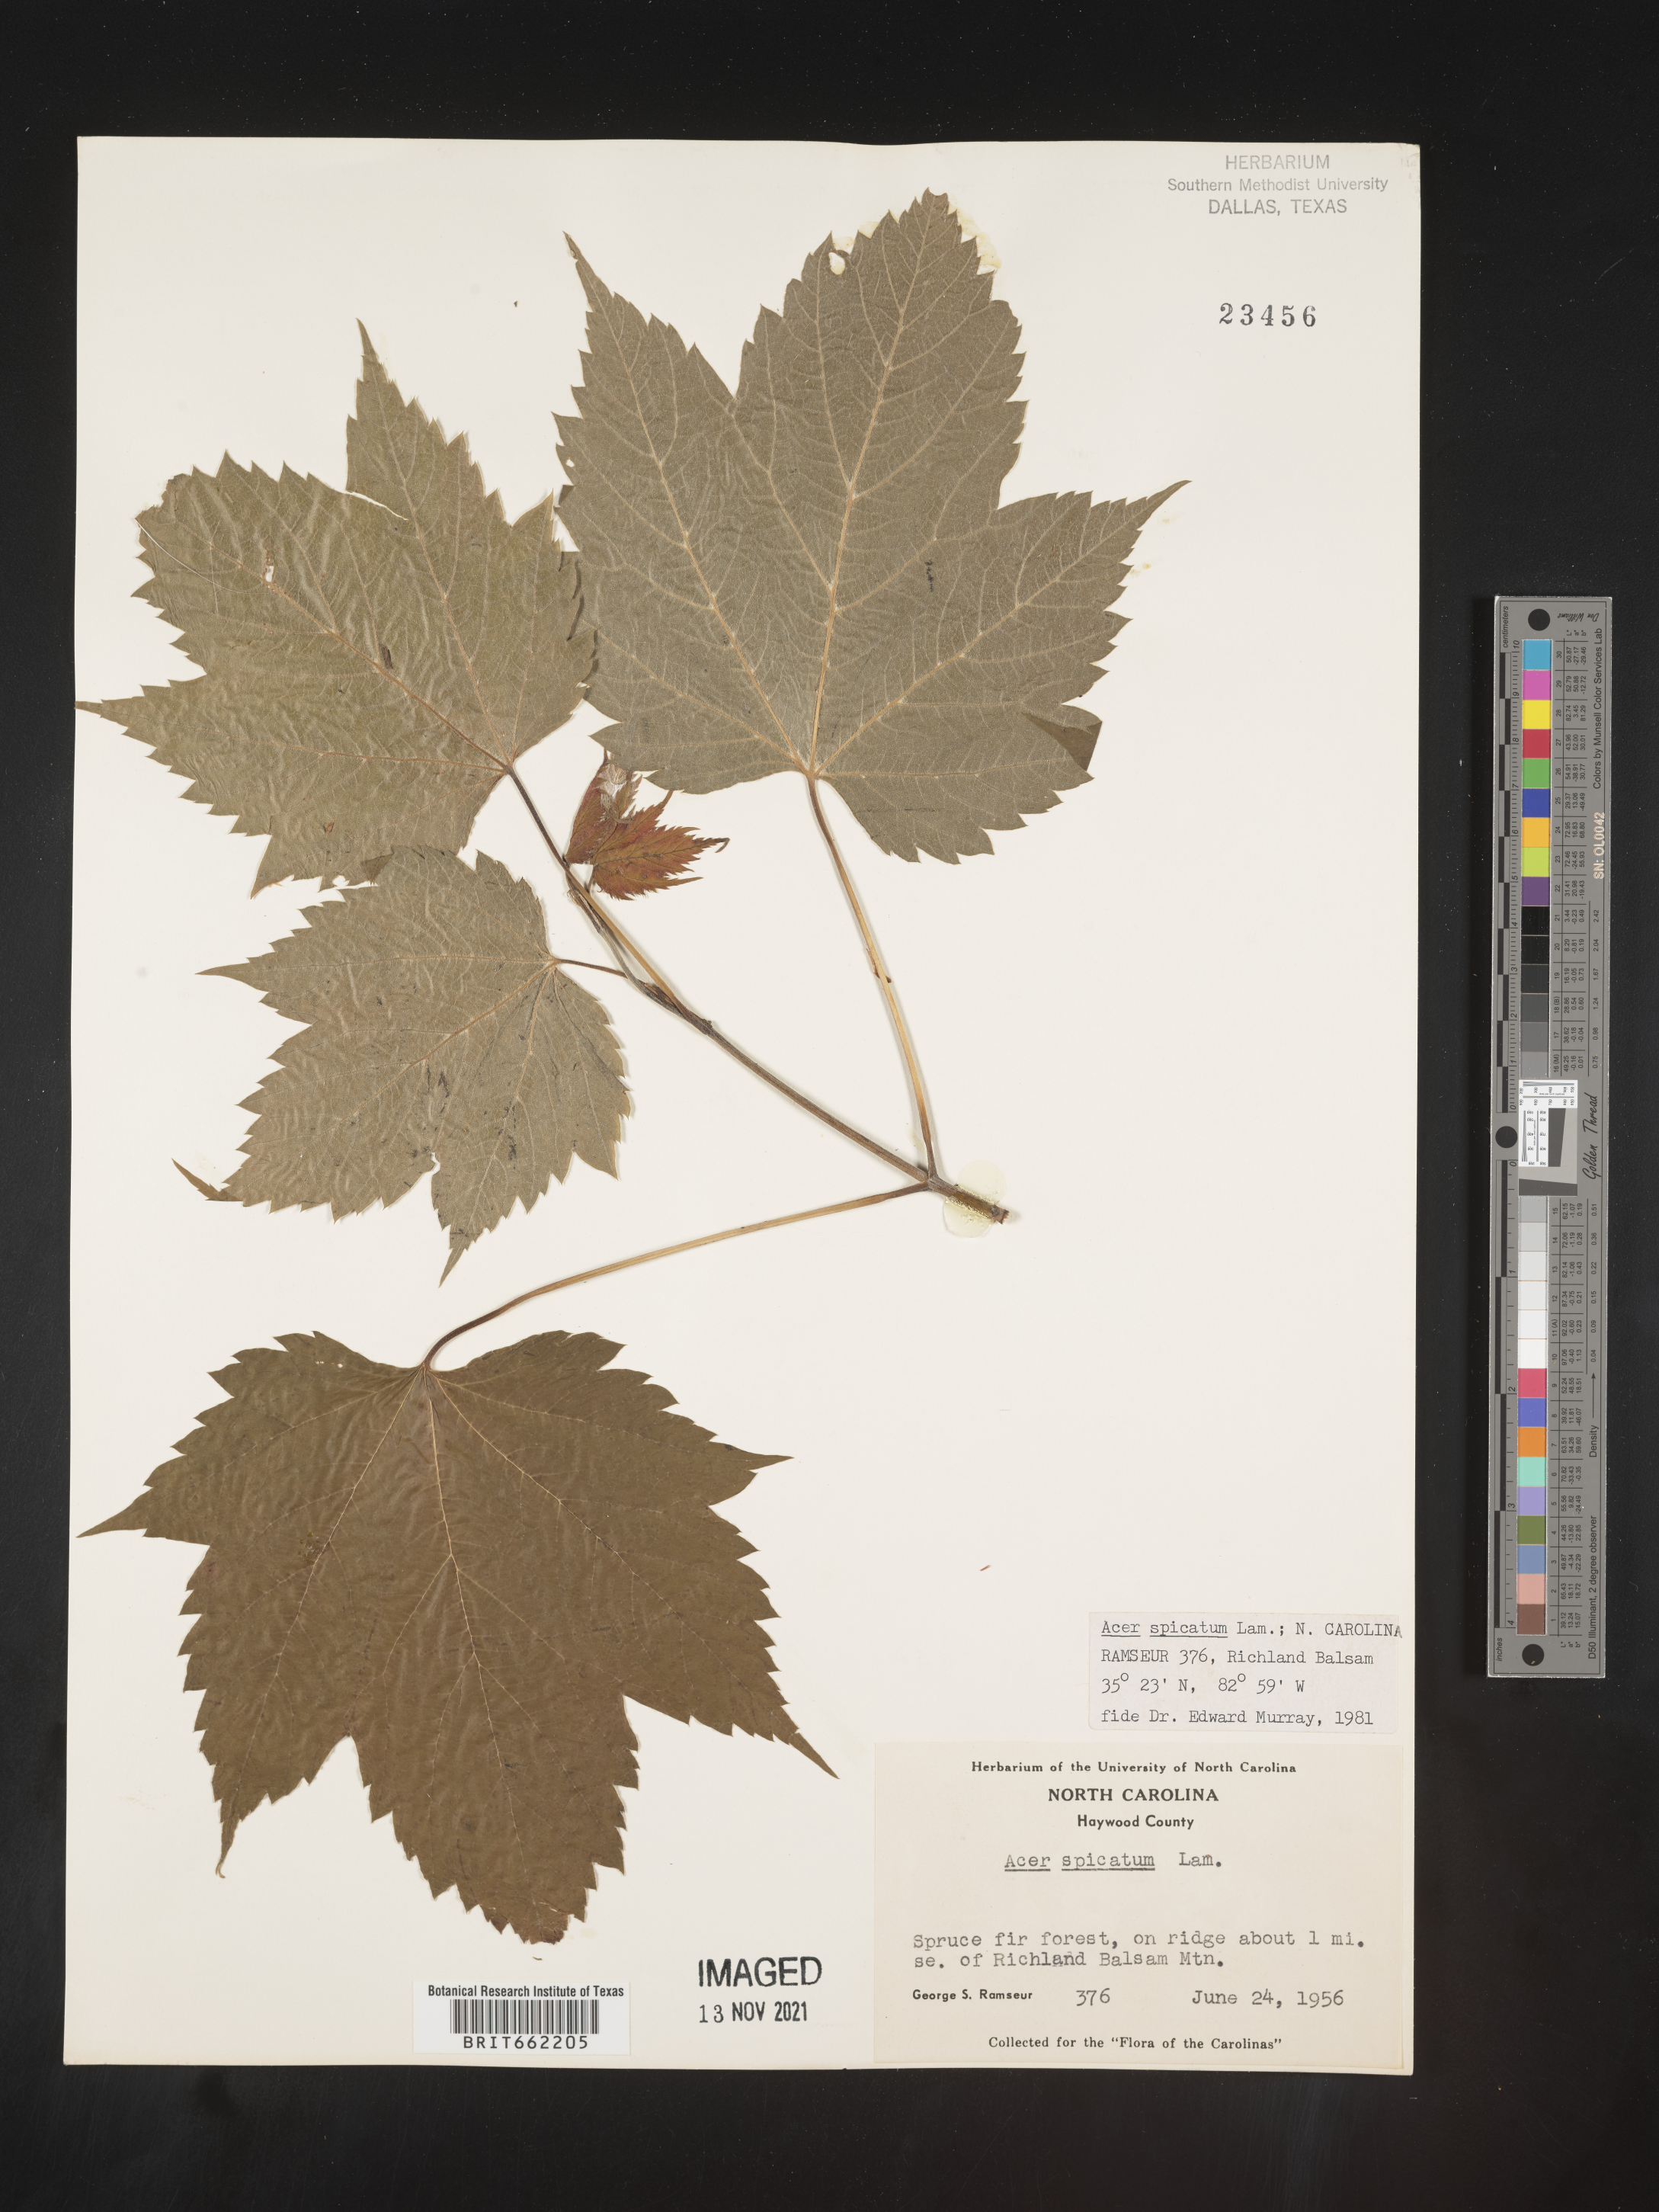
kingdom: Plantae
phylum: Tracheophyta
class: Magnoliopsida
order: Sapindales
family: Sapindaceae
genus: Acer
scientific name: Acer spicatum
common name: Mountain maple
